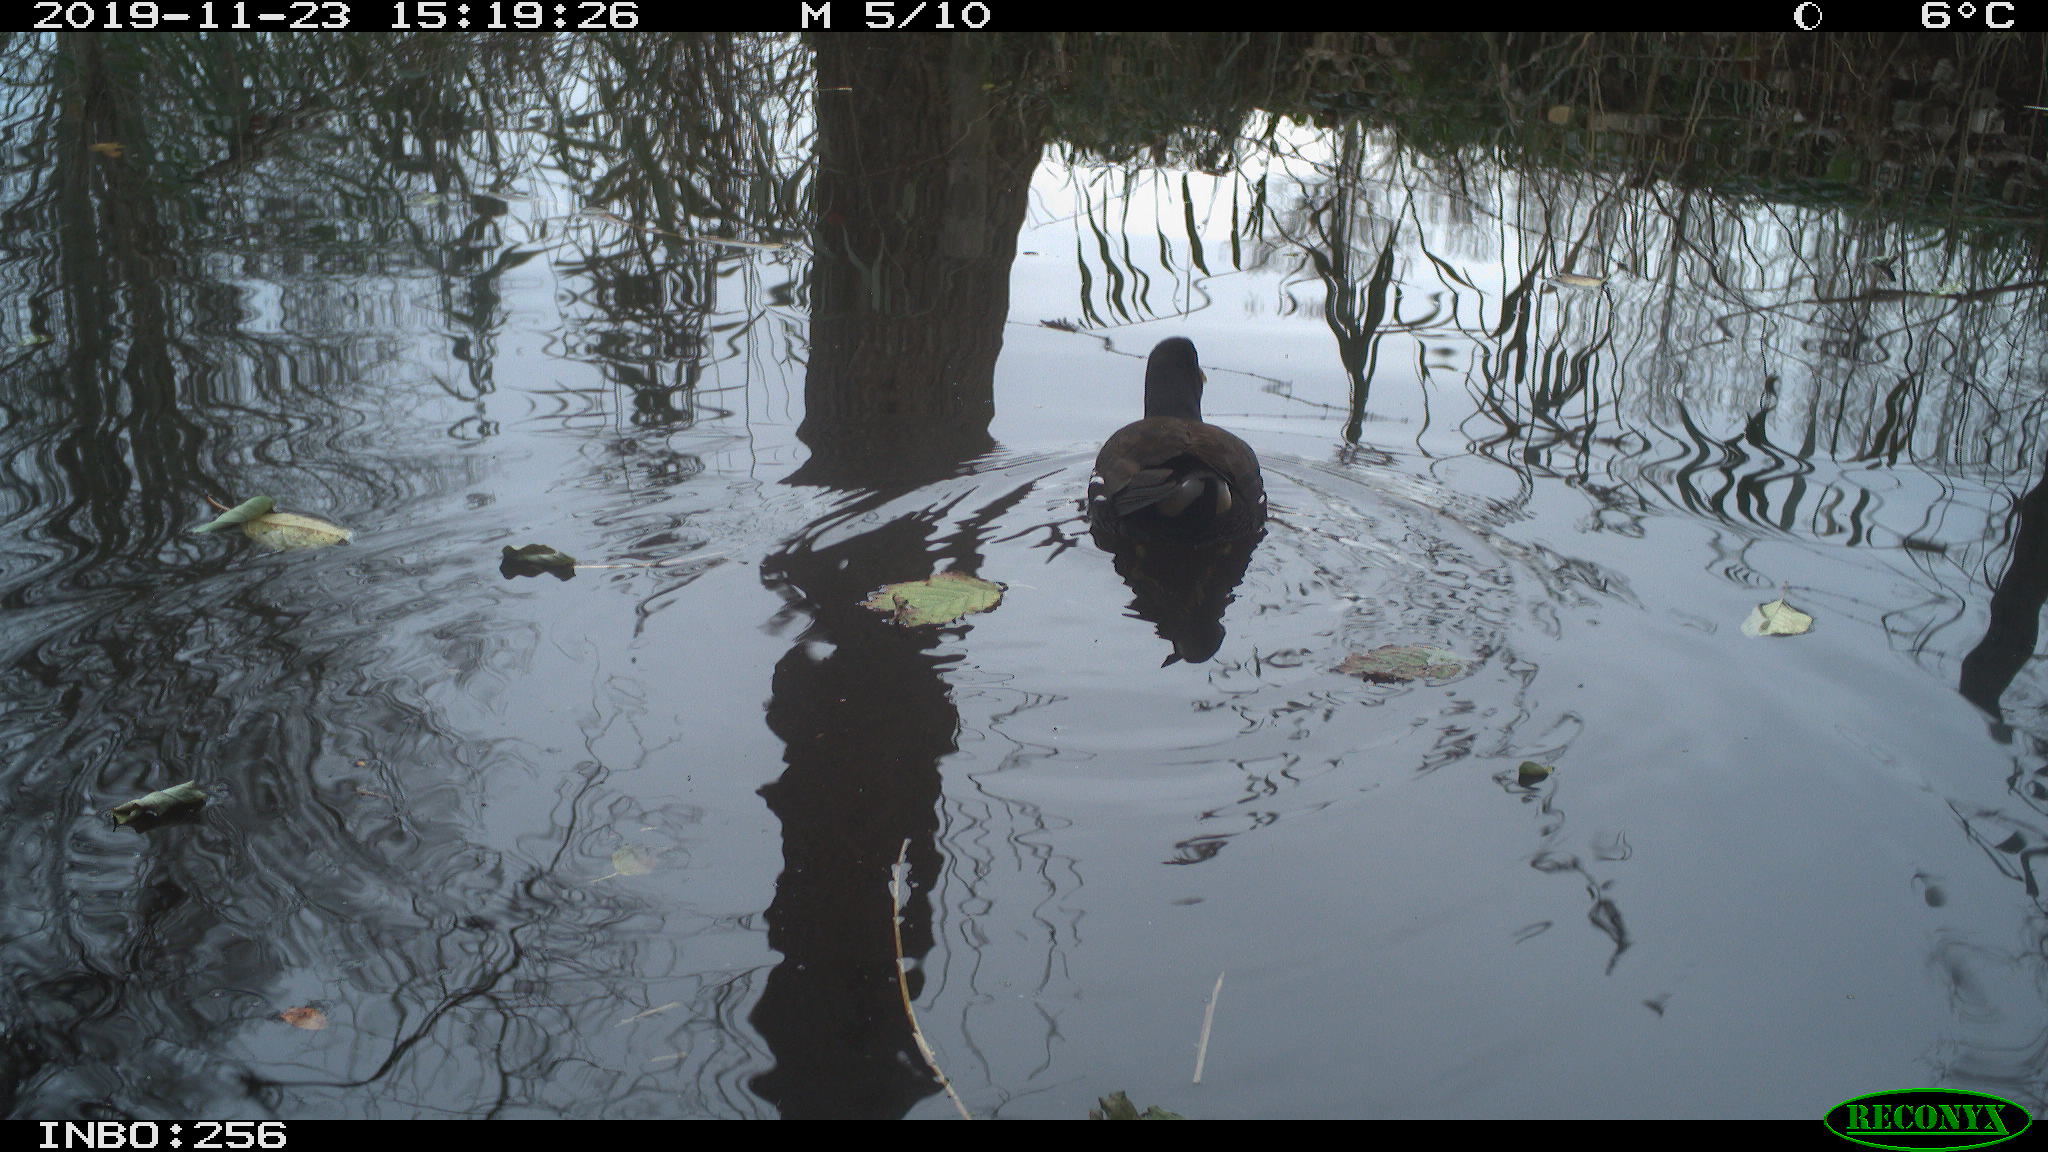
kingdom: Animalia
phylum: Chordata
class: Aves
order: Gruiformes
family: Rallidae
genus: Gallinula
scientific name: Gallinula chloropus
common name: Common moorhen
